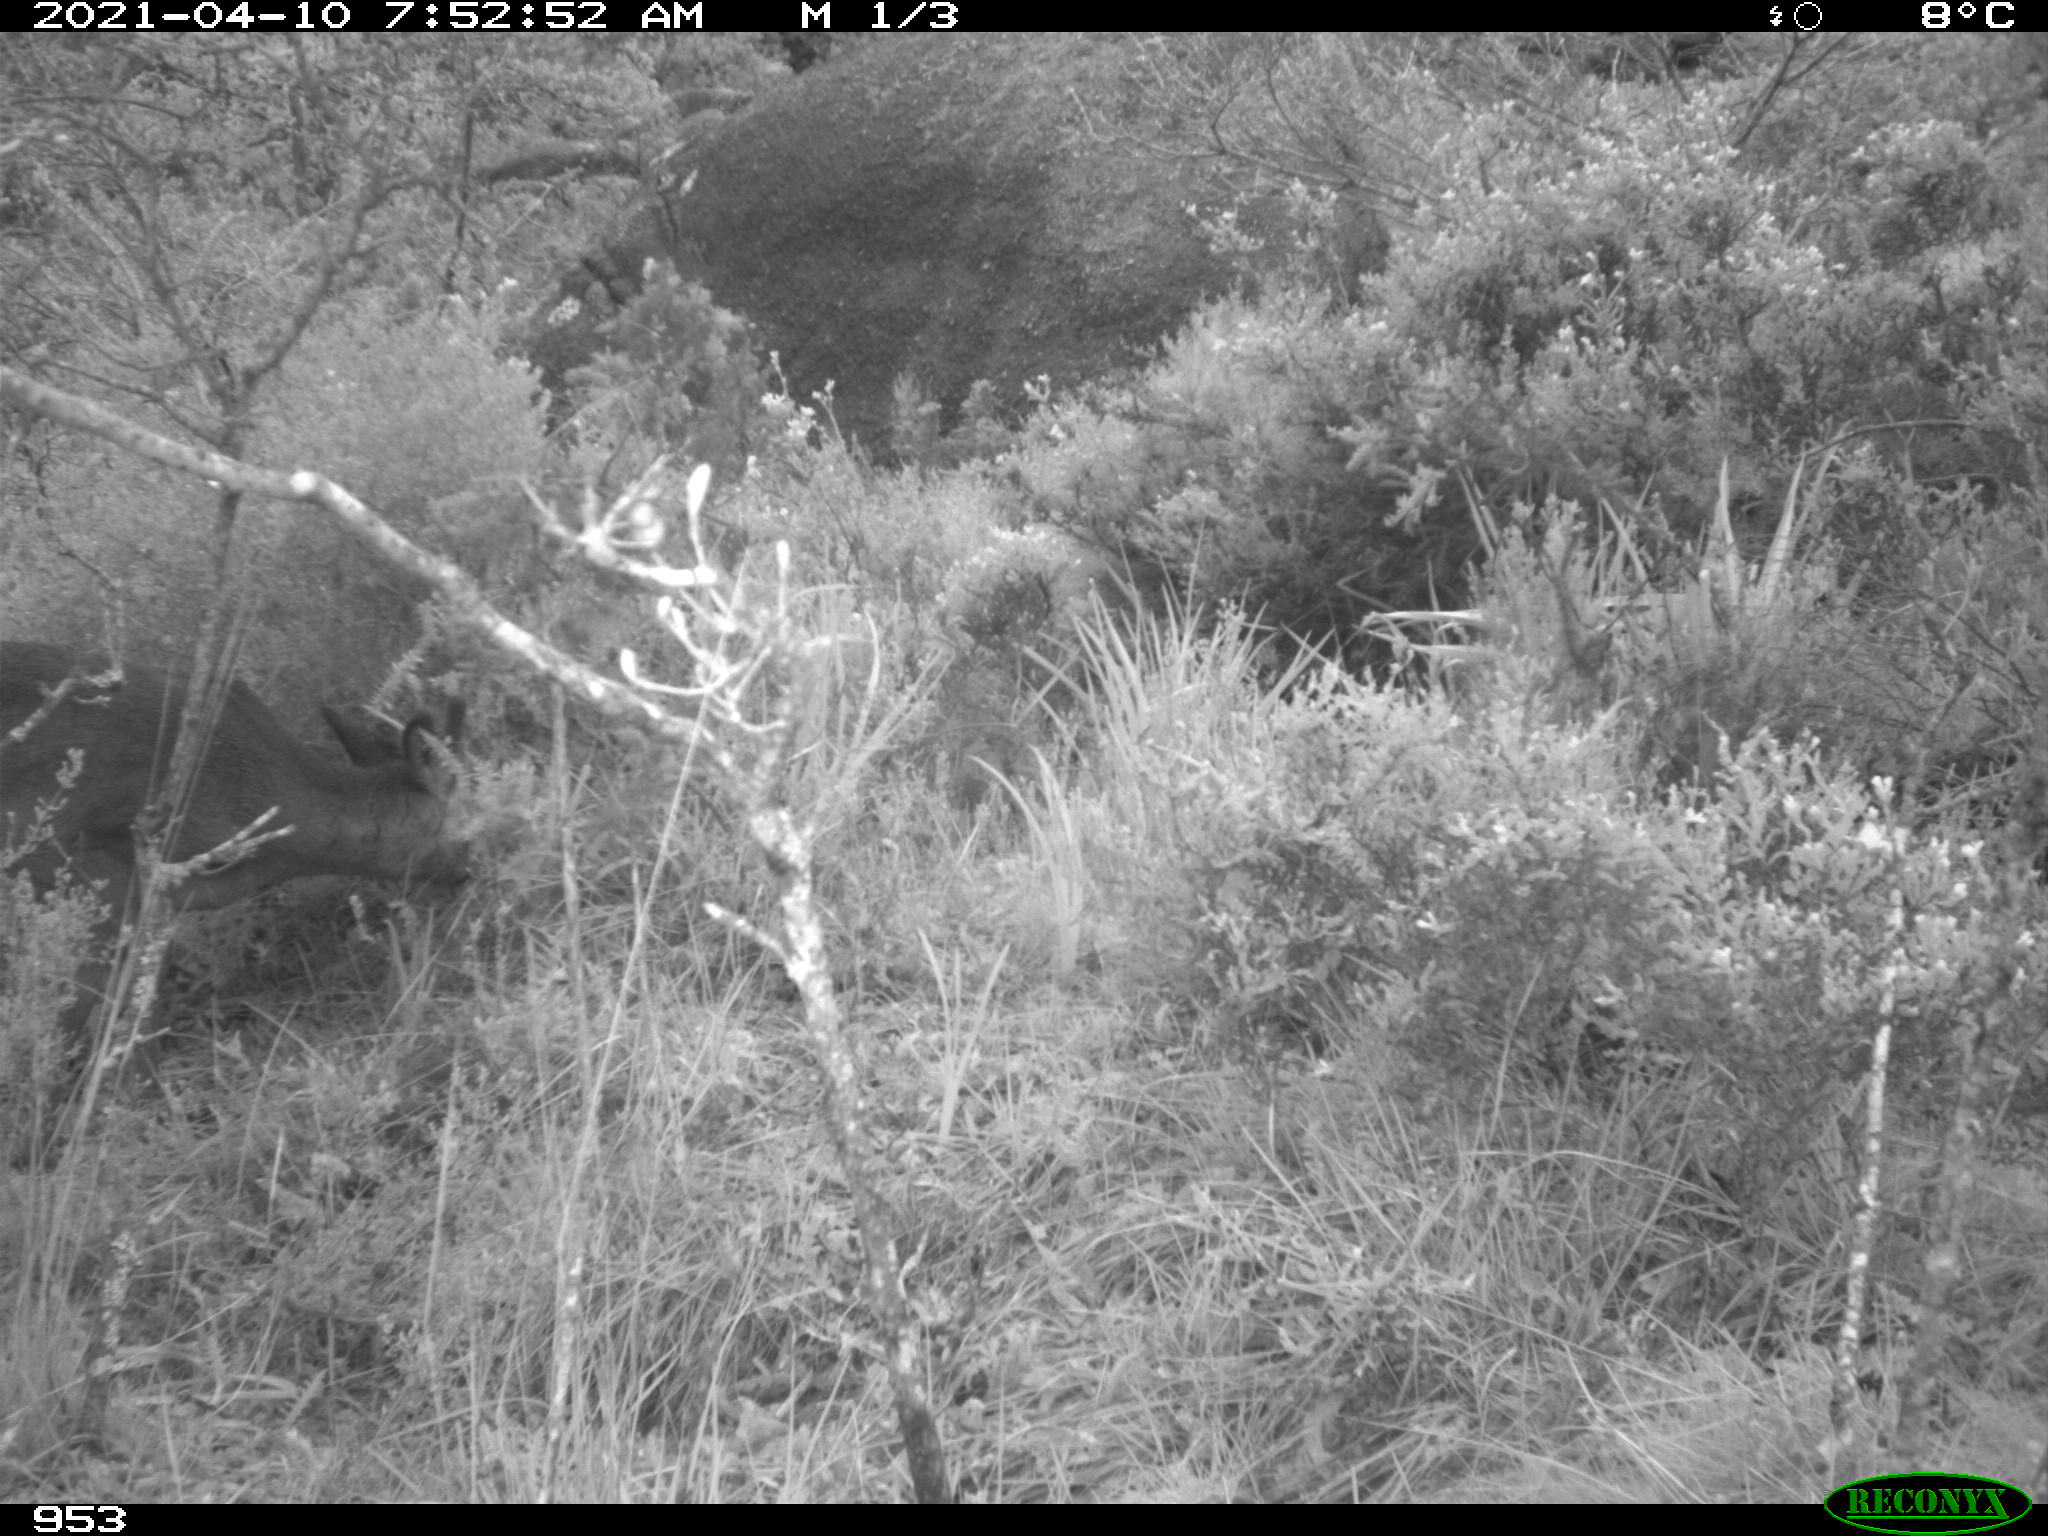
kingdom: Animalia
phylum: Chordata
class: Mammalia
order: Artiodactyla
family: Cervidae
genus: Capreolus
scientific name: Capreolus capreolus
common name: Western roe deer
